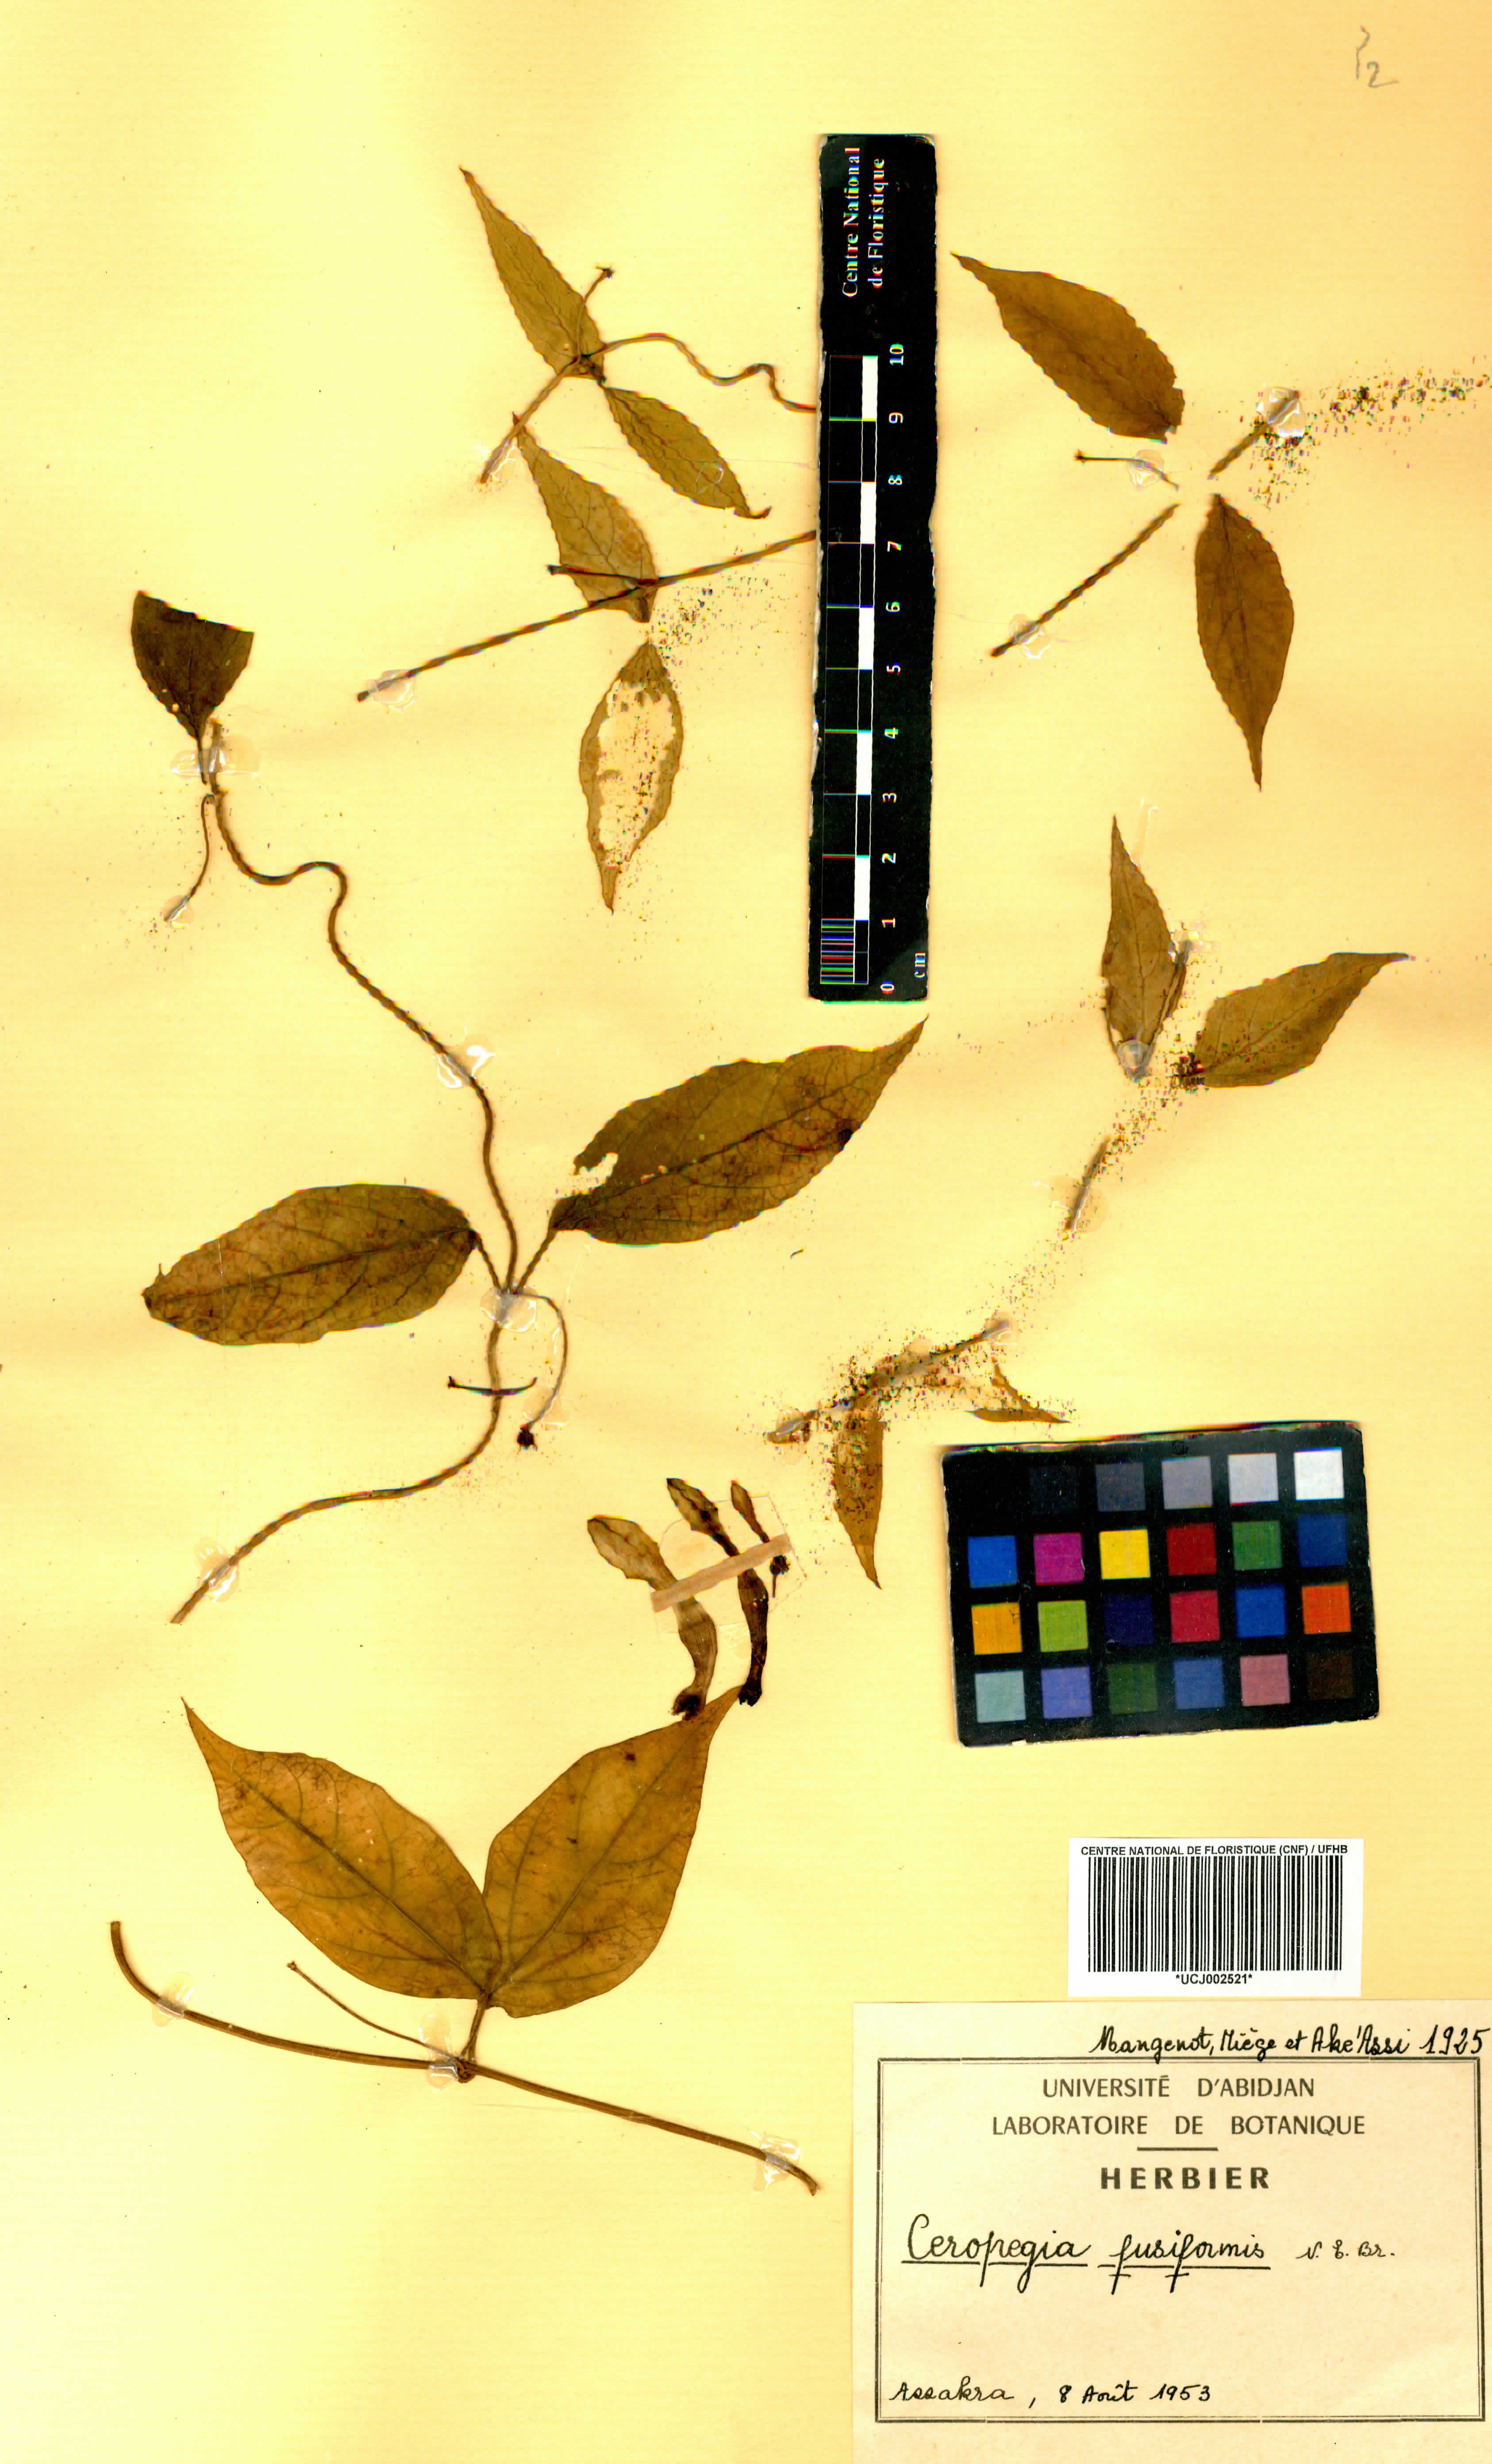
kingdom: Plantae
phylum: Tracheophyta
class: Magnoliopsida
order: Gentianales
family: Apocynaceae
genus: Ceropegia
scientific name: Ceropegia fusiformis
